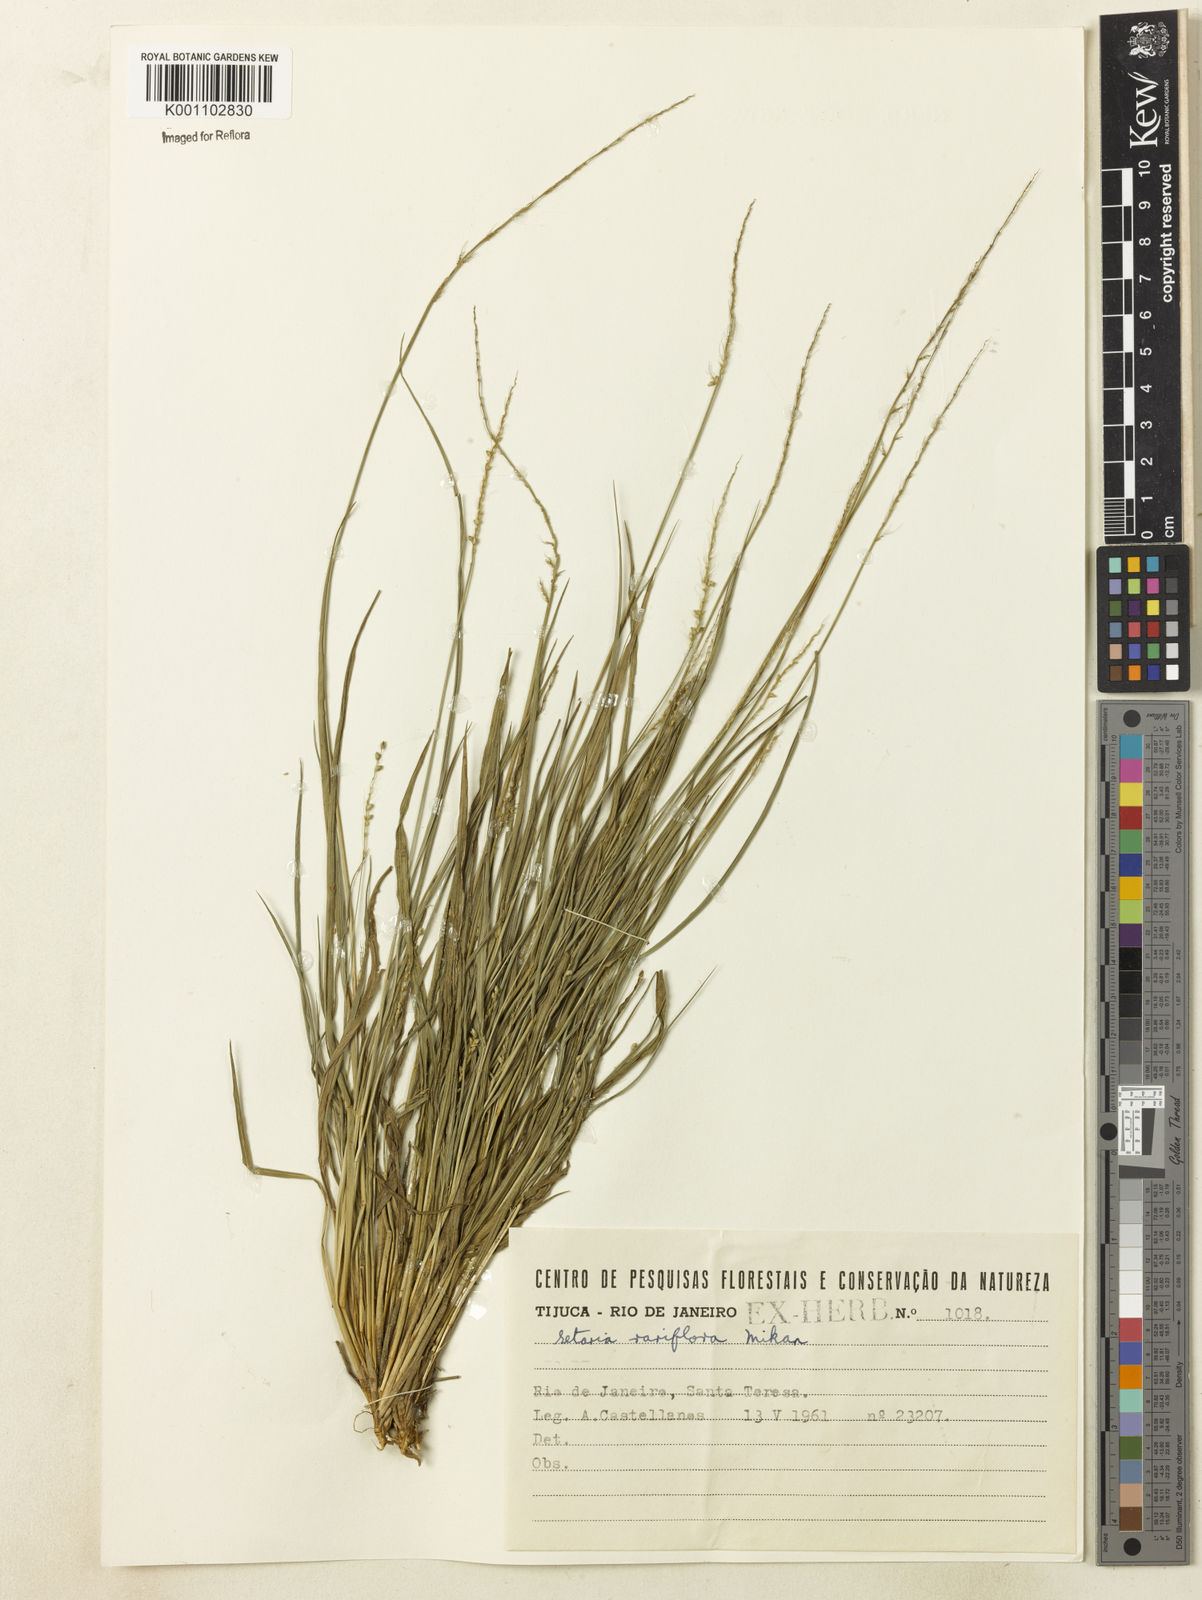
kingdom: Plantae
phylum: Tracheophyta
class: Liliopsida
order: Poales
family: Poaceae
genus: Setaria
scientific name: Setaria setosa
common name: West indies bristle grass
